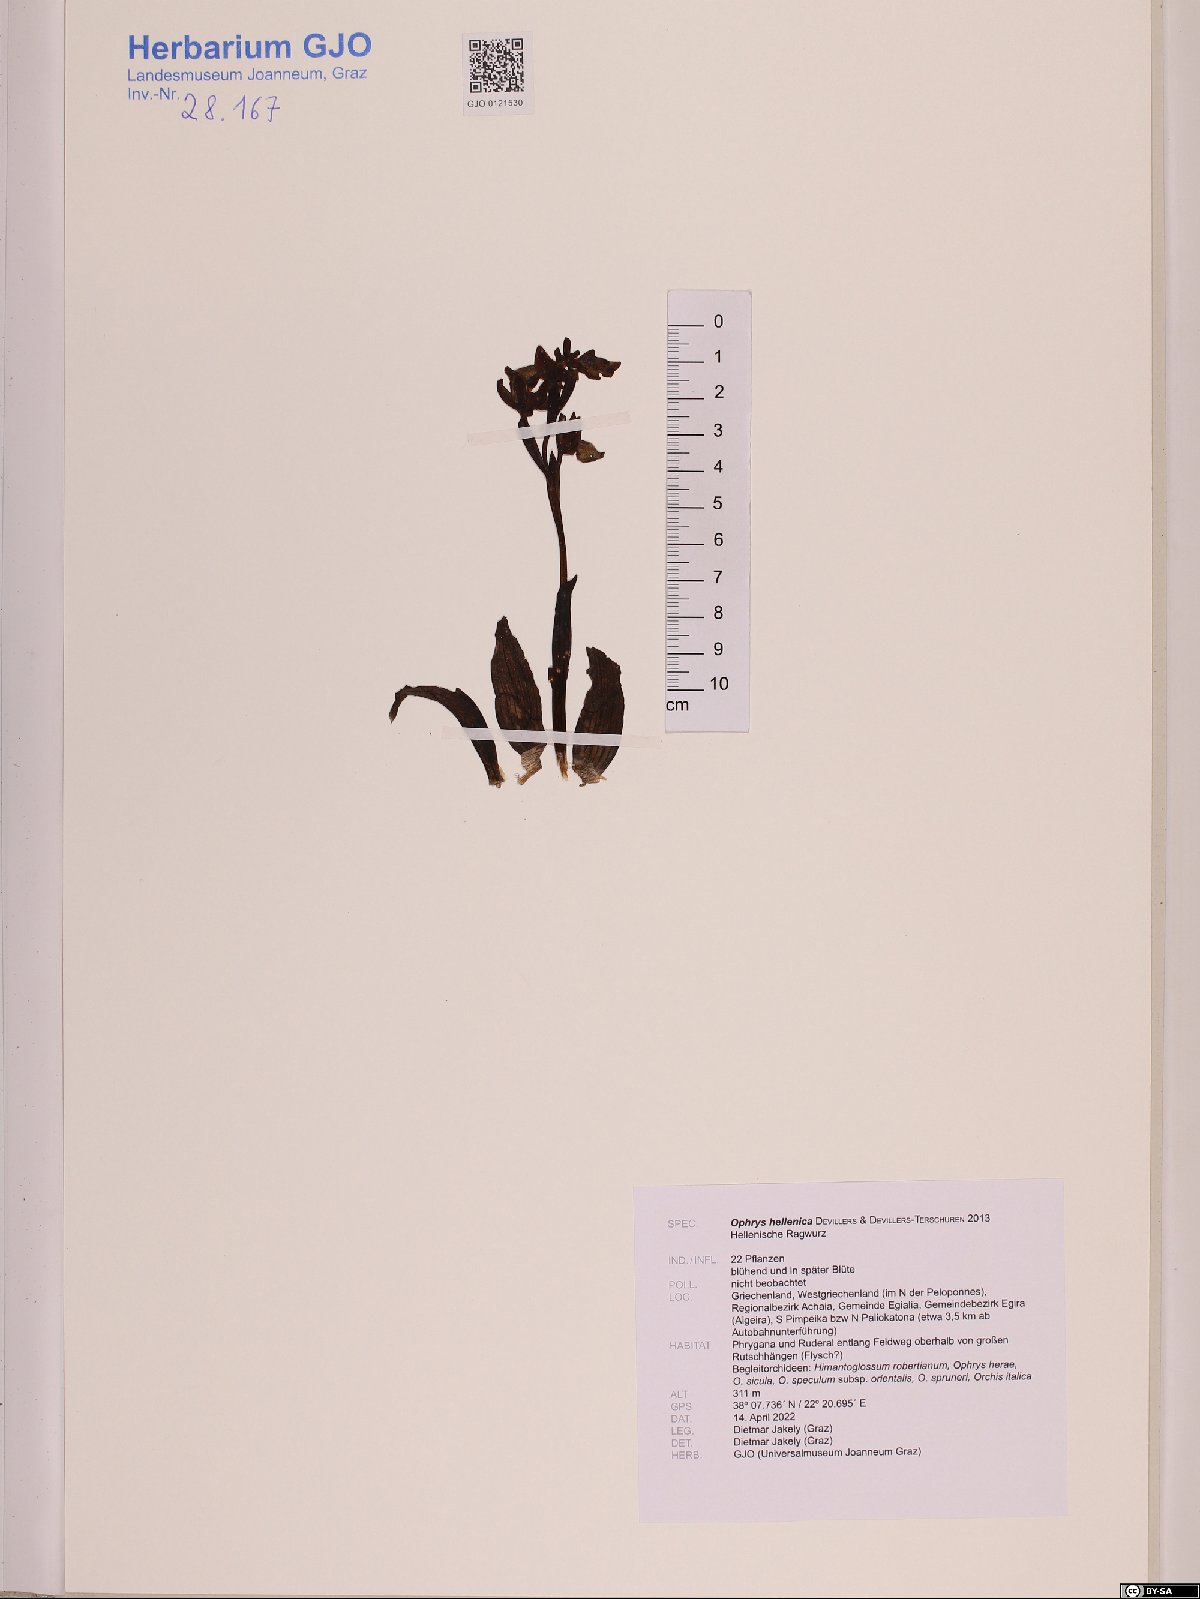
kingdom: Plantae
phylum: Tracheophyta
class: Liliopsida
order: Asparagales
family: Orchidaceae
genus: Ophrys
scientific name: Ophrys lutea
